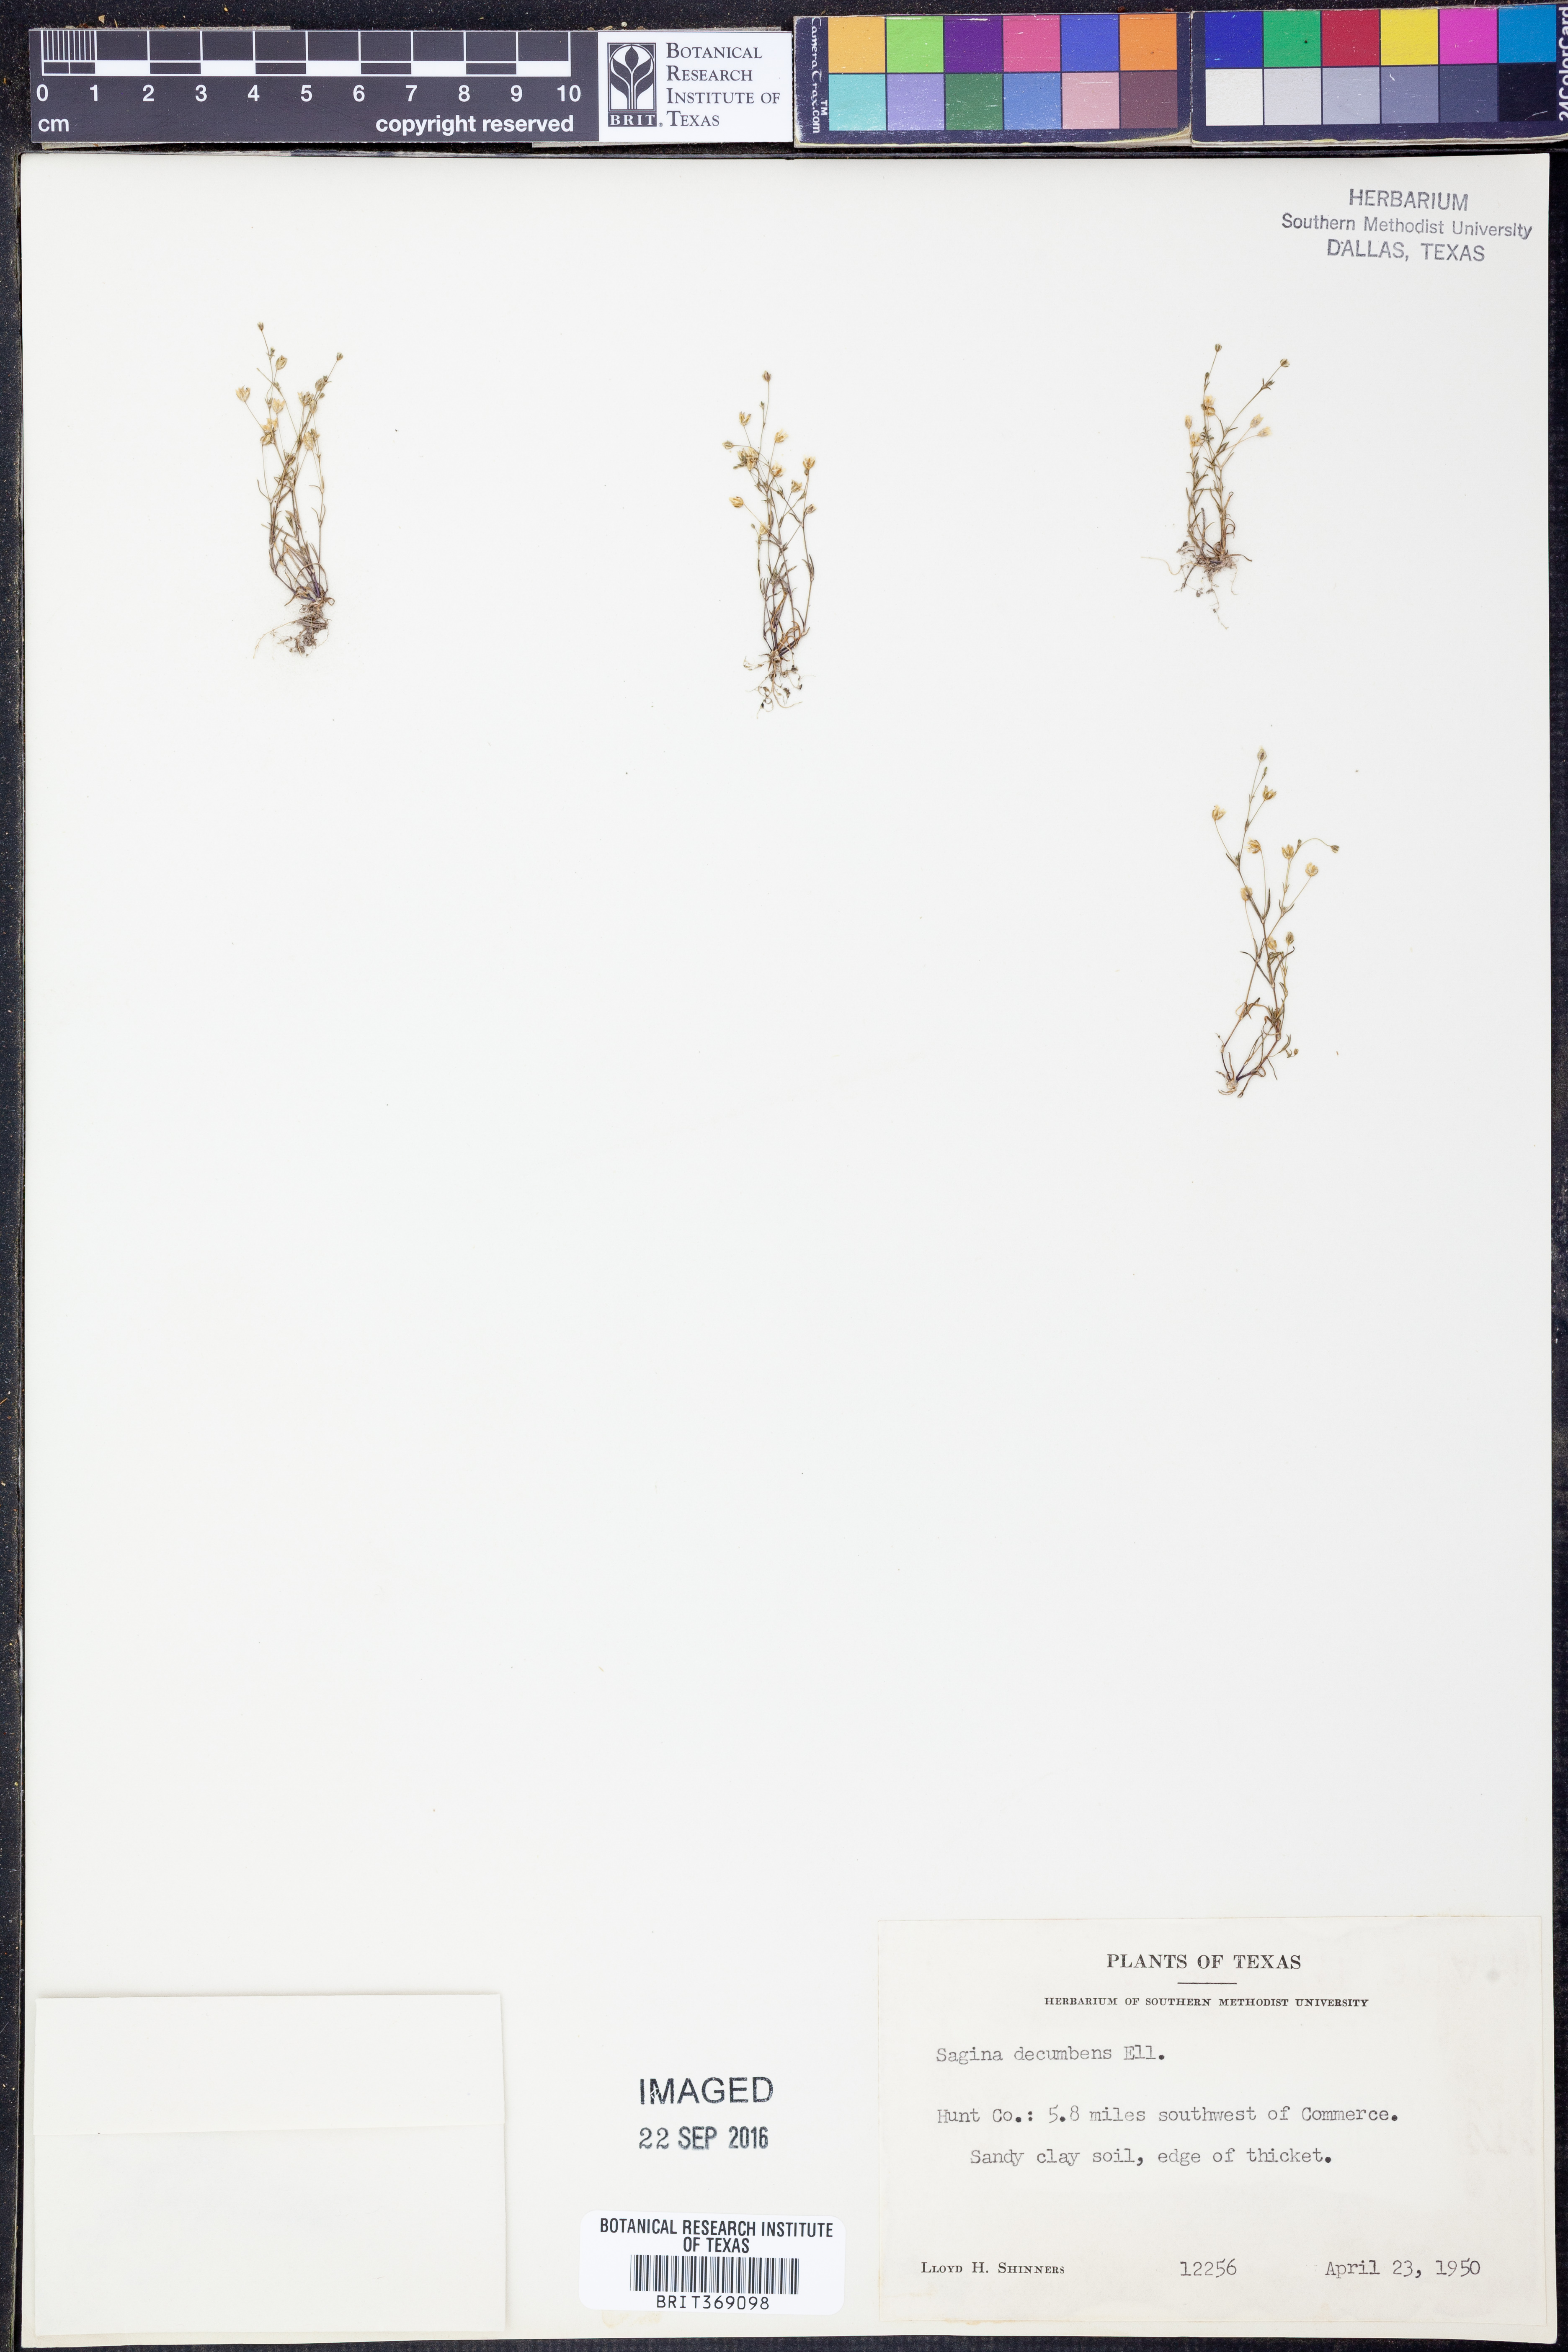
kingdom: Plantae
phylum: Tracheophyta
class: Magnoliopsida
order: Caryophyllales
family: Caryophyllaceae
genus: Sagina
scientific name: Sagina decumbens
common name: Decumbent pearlwort
